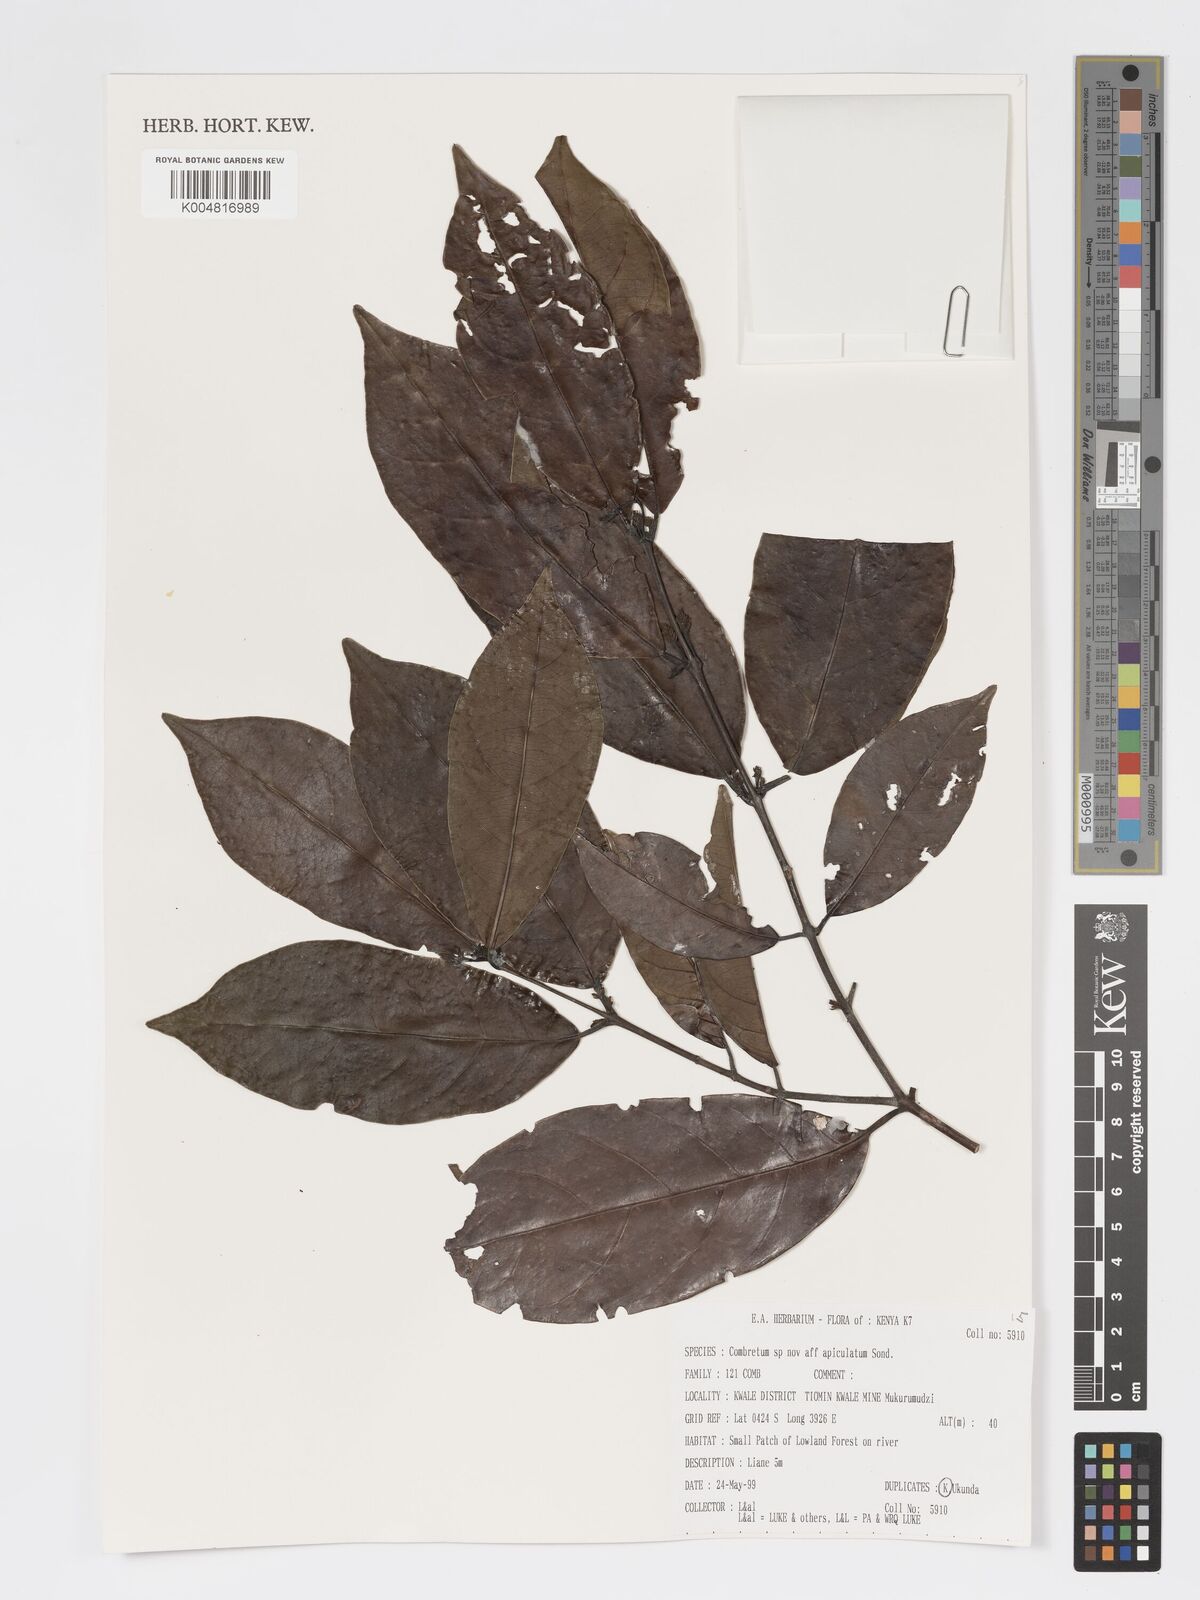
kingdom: Plantae
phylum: Tracheophyta
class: Magnoliopsida
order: Myrtales
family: Combretaceae
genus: Combretum
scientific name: Combretum apiculatum
